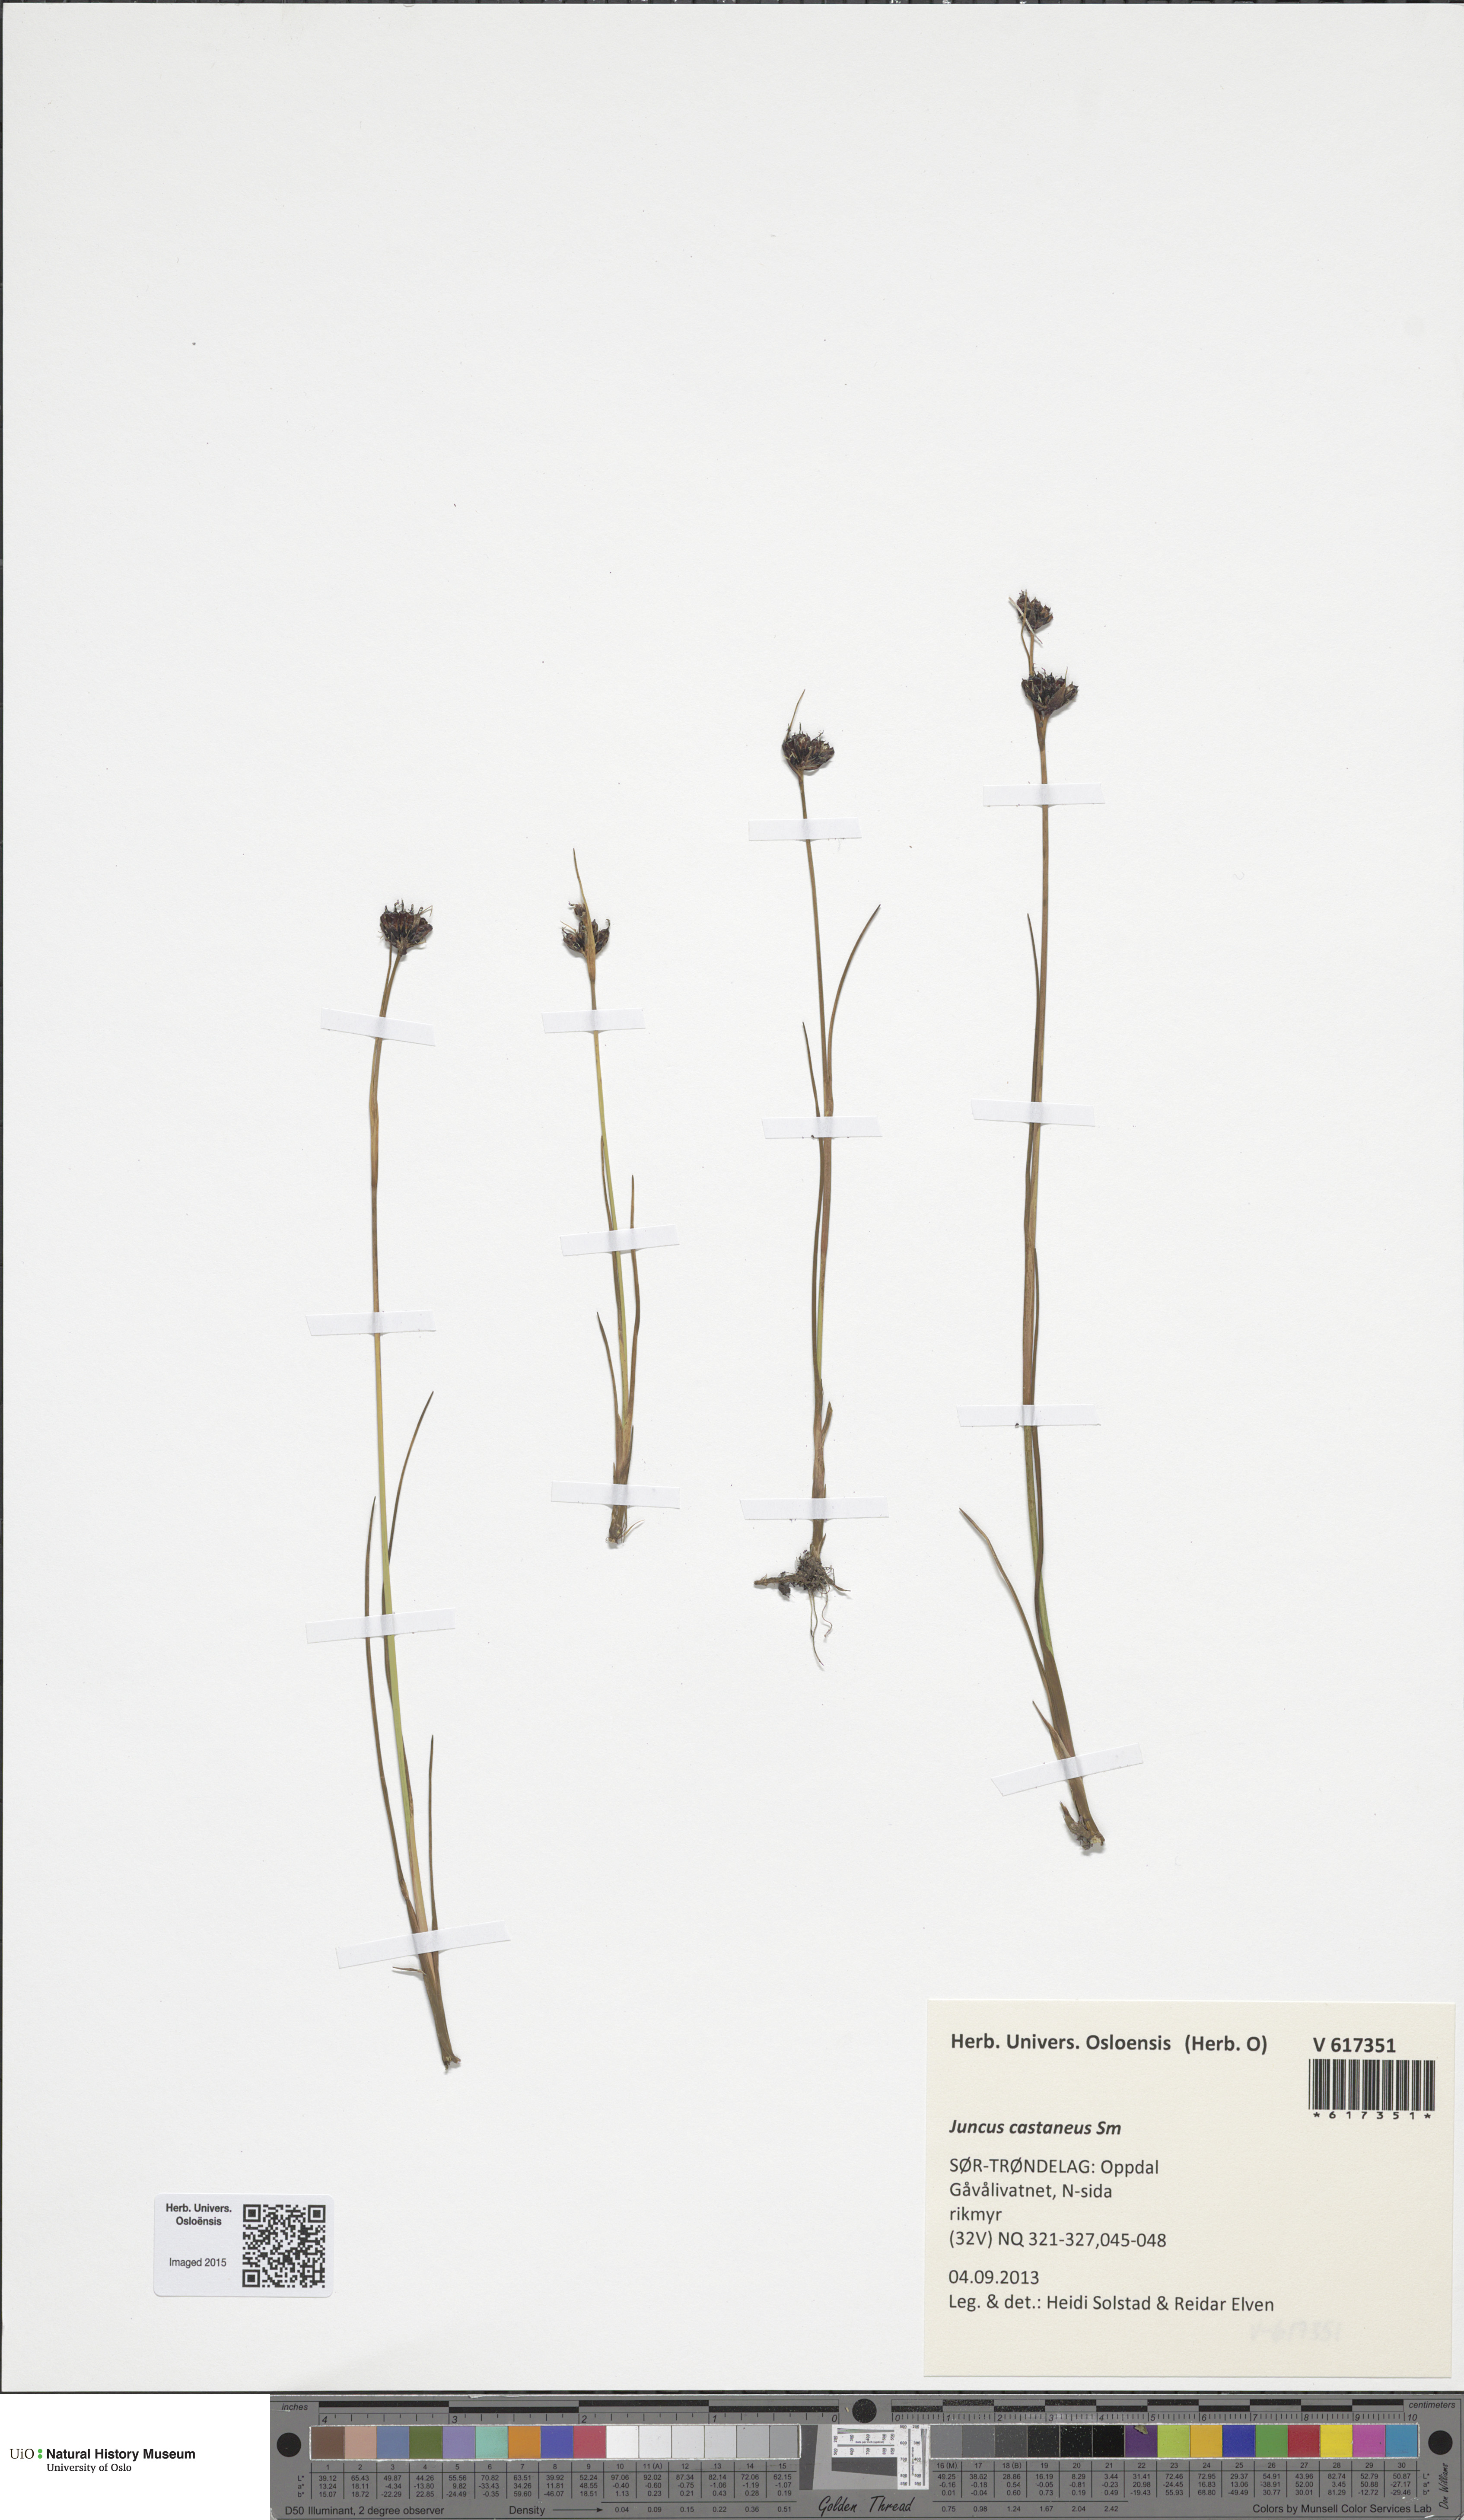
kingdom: Plantae
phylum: Tracheophyta
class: Liliopsida
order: Poales
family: Juncaceae
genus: Juncus
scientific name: Juncus castaneus
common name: Chestnut rush
